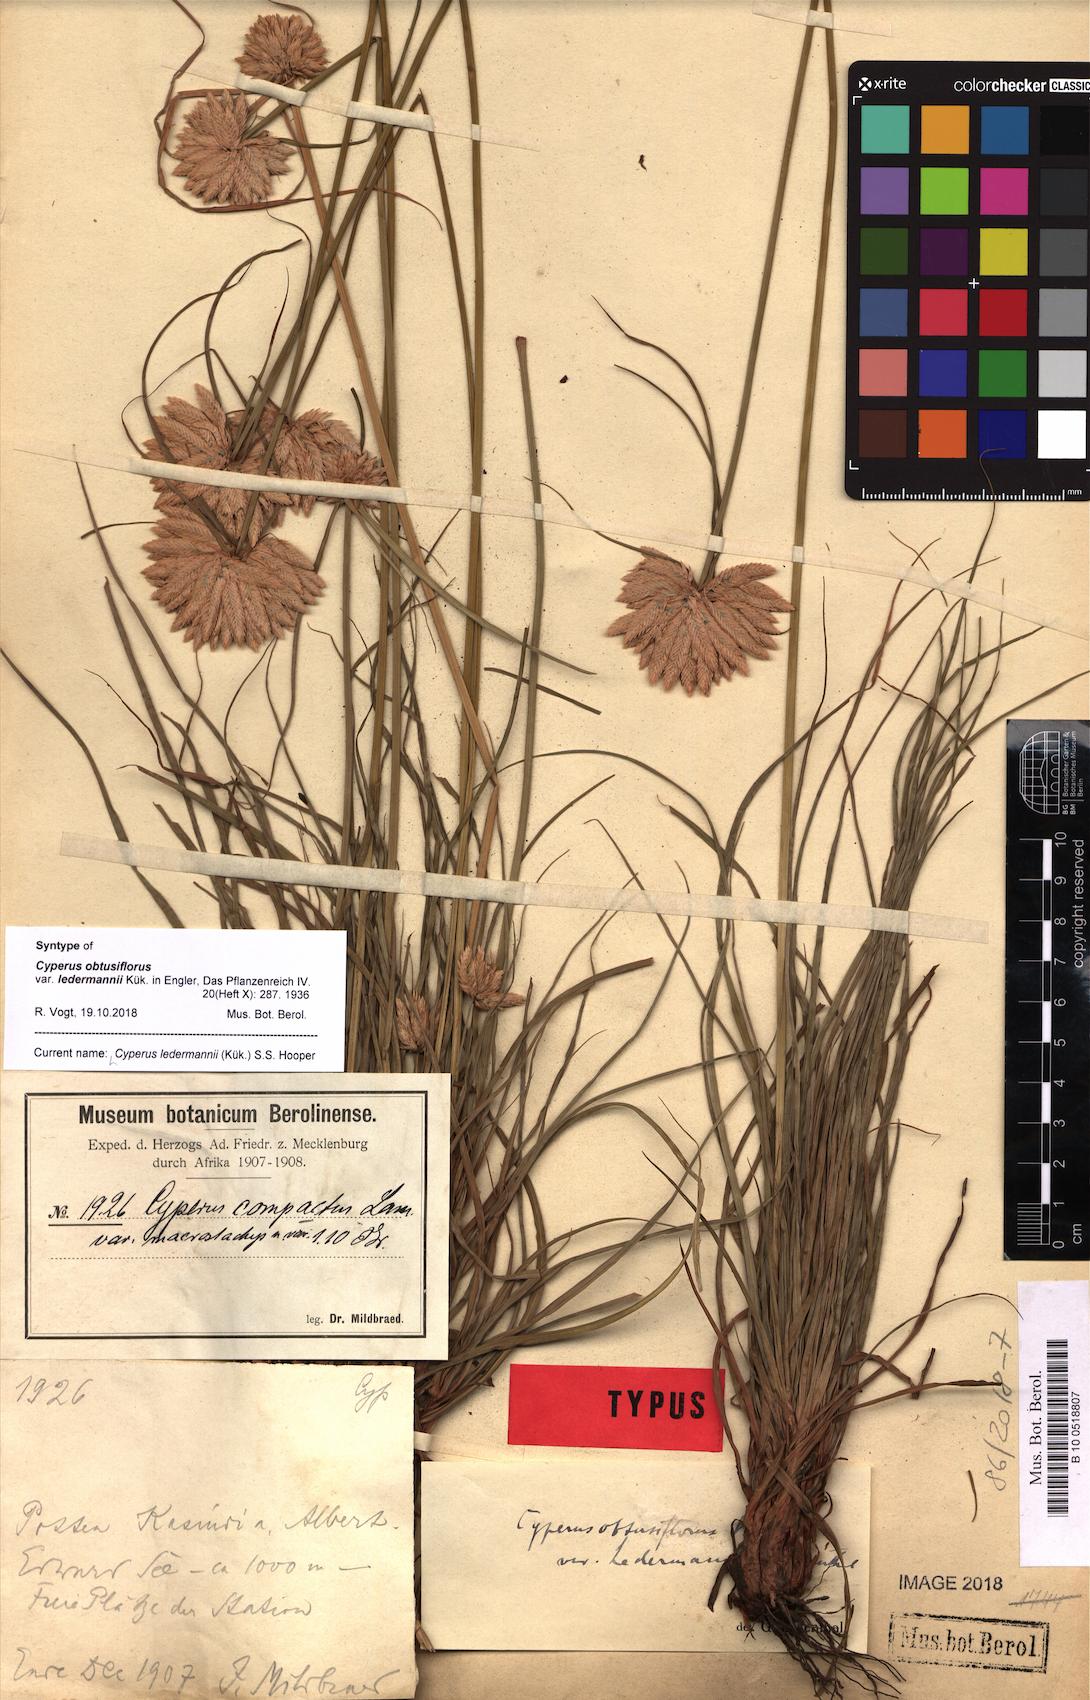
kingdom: Plantae
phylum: Tracheophyta
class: Liliopsida
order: Poales
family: Cyperaceae
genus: Cyperus
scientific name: Cyperus niveus
